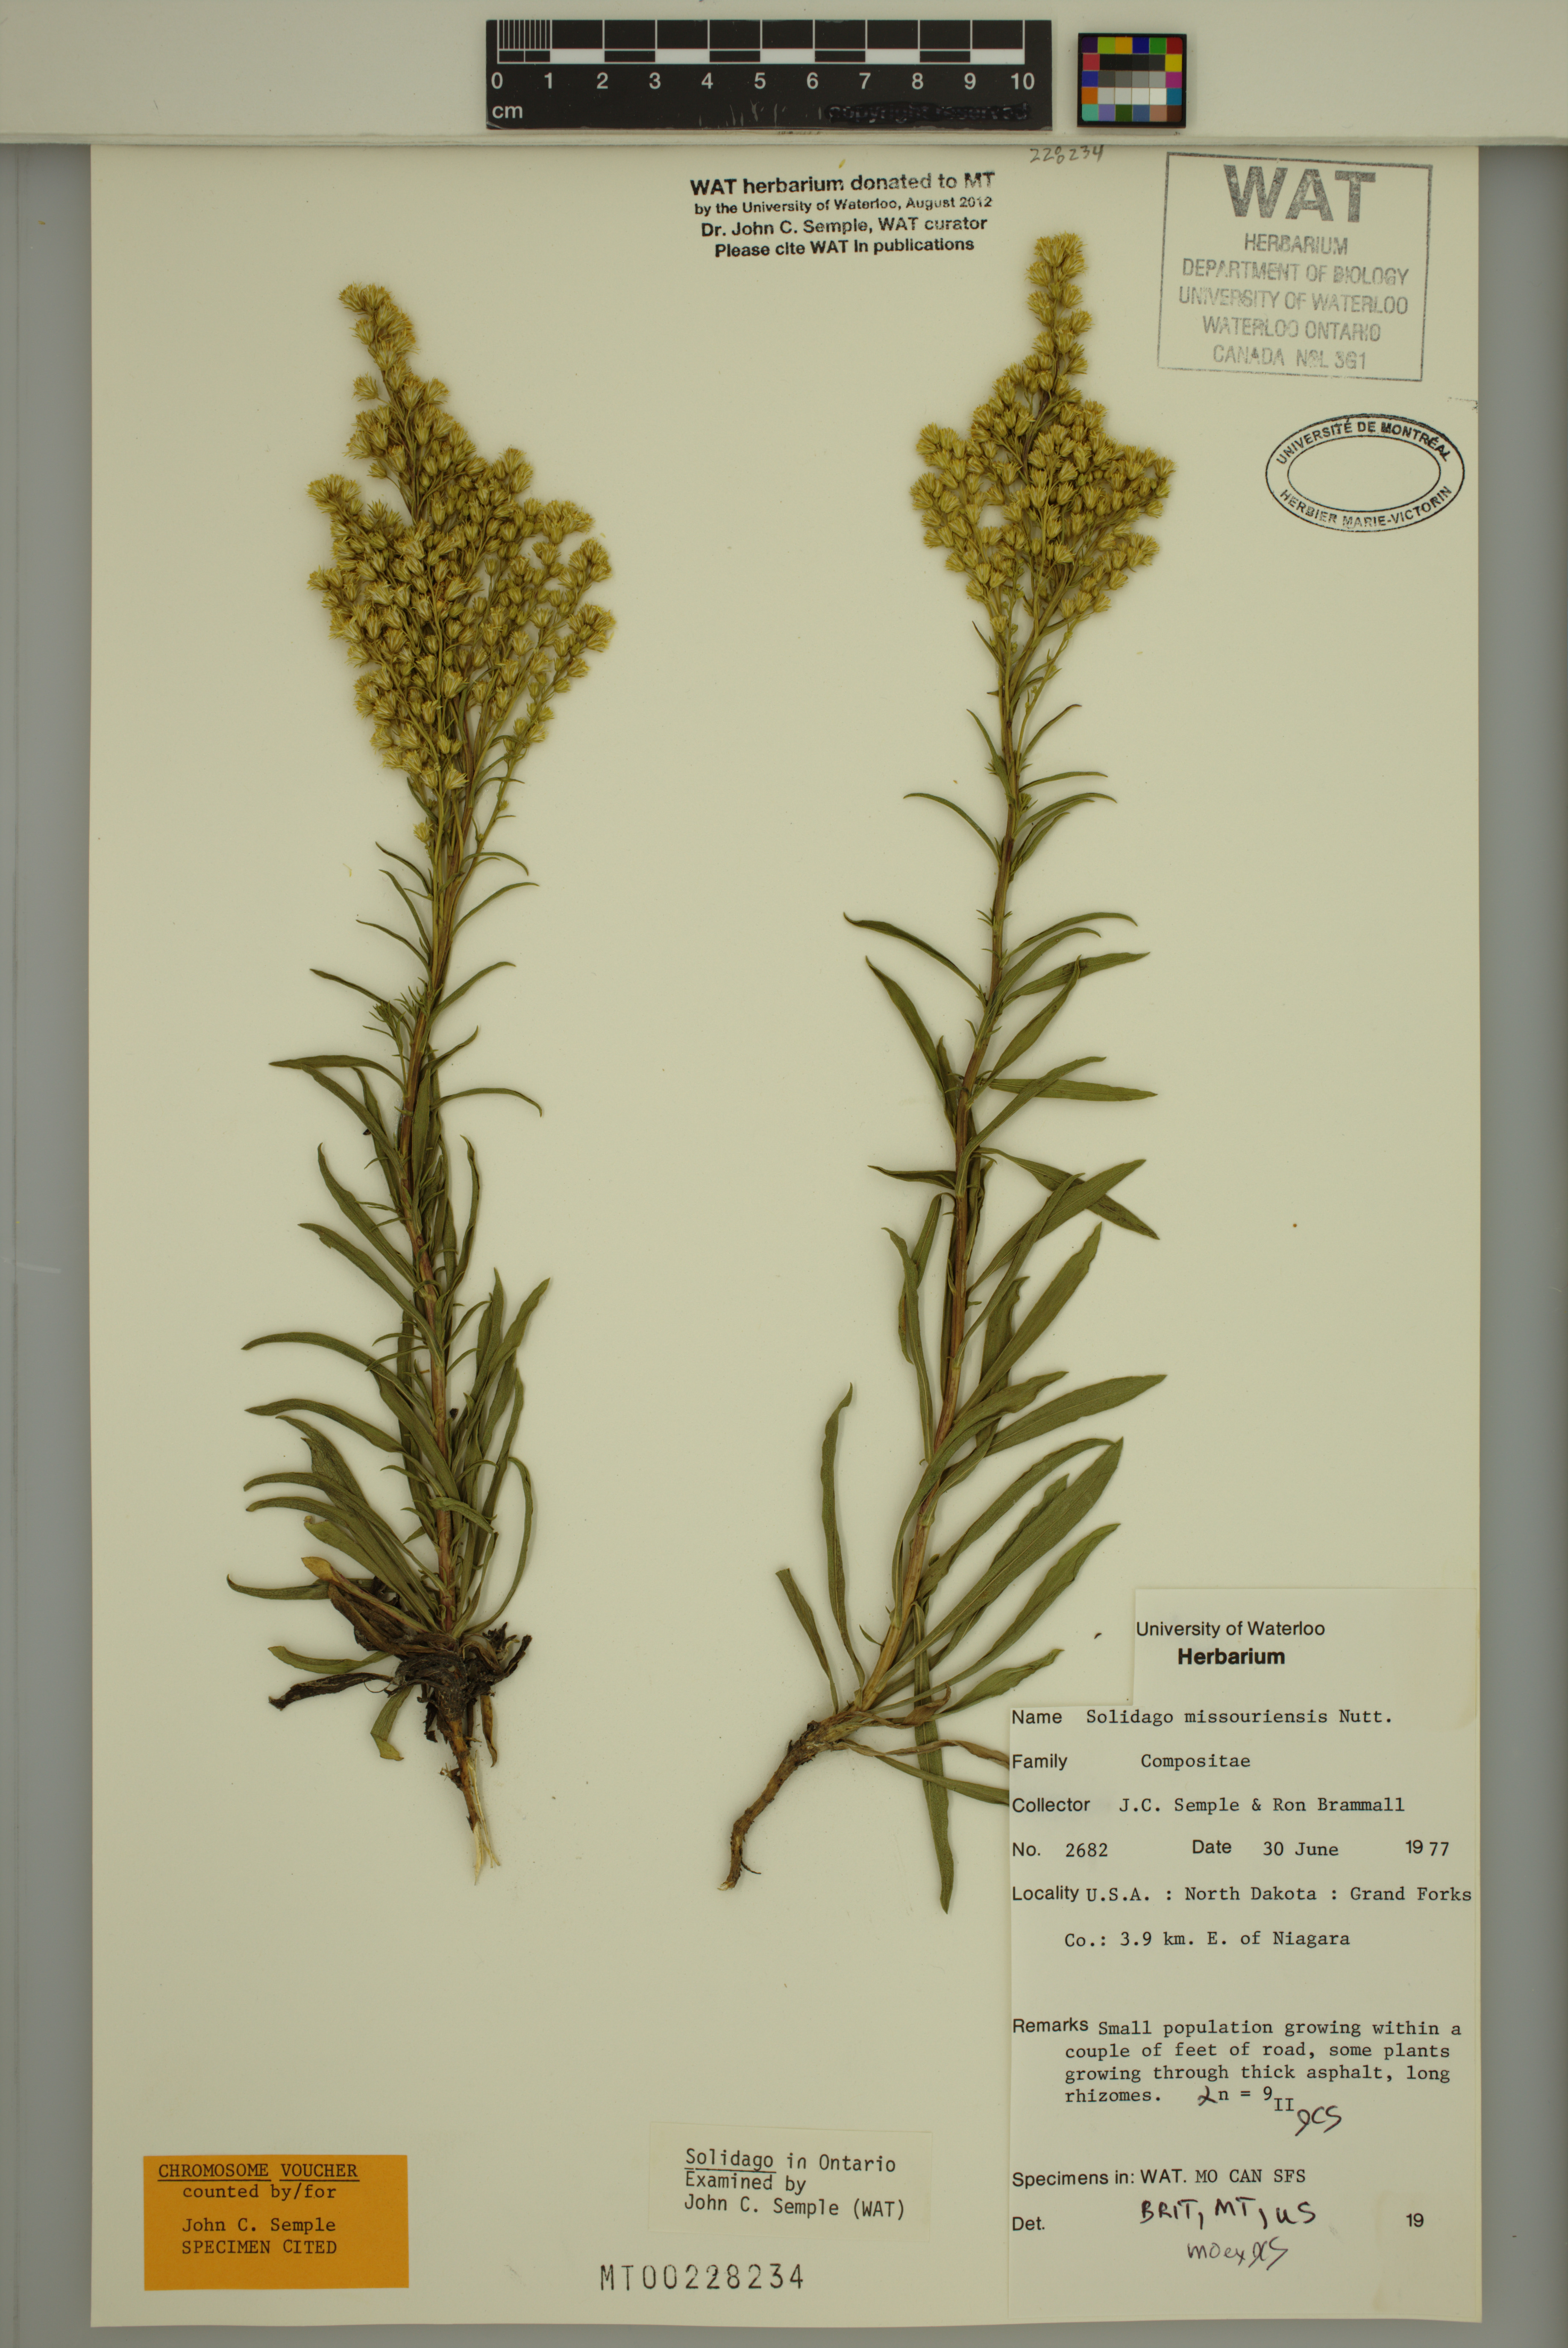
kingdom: Plantae
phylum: Tracheophyta
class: Magnoliopsida
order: Asterales
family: Asteraceae
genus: Solidago
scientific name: Solidago missouriensis
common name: Prairie goldenrod
